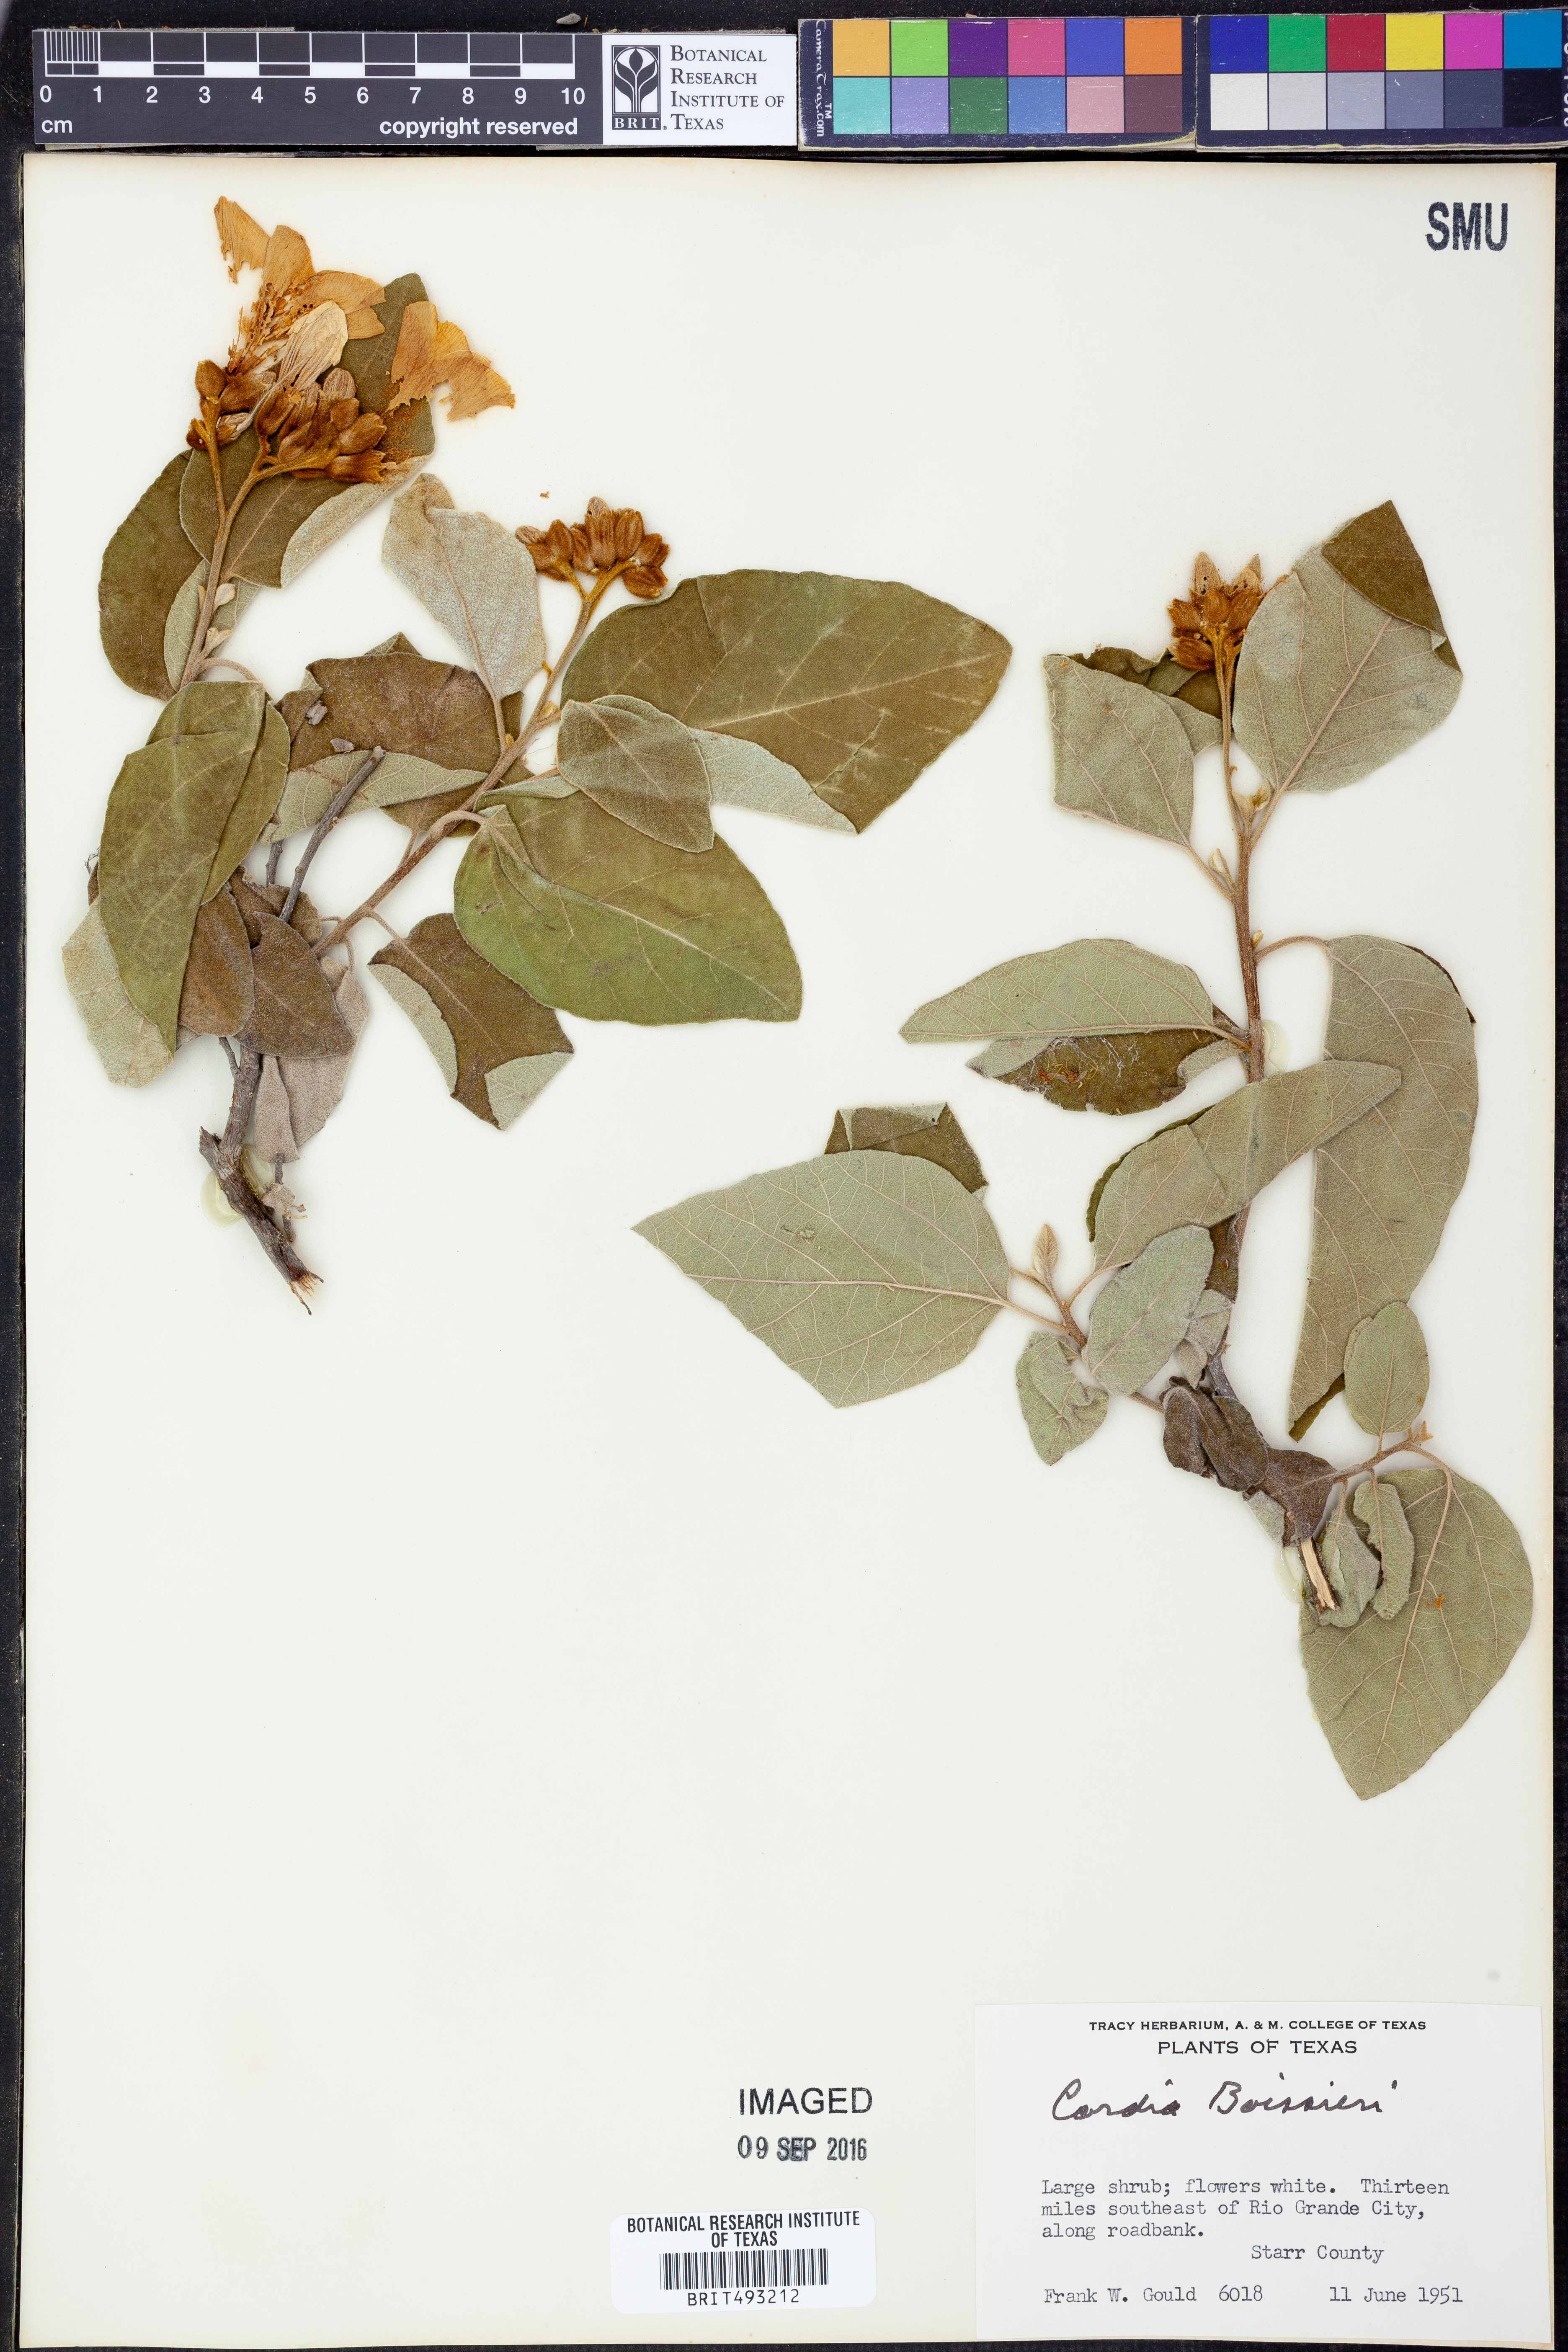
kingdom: Plantae
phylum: Tracheophyta
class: Magnoliopsida
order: Boraginales
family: Cordiaceae
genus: Cordia
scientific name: Cordia boissieri
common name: Mexican-olive
